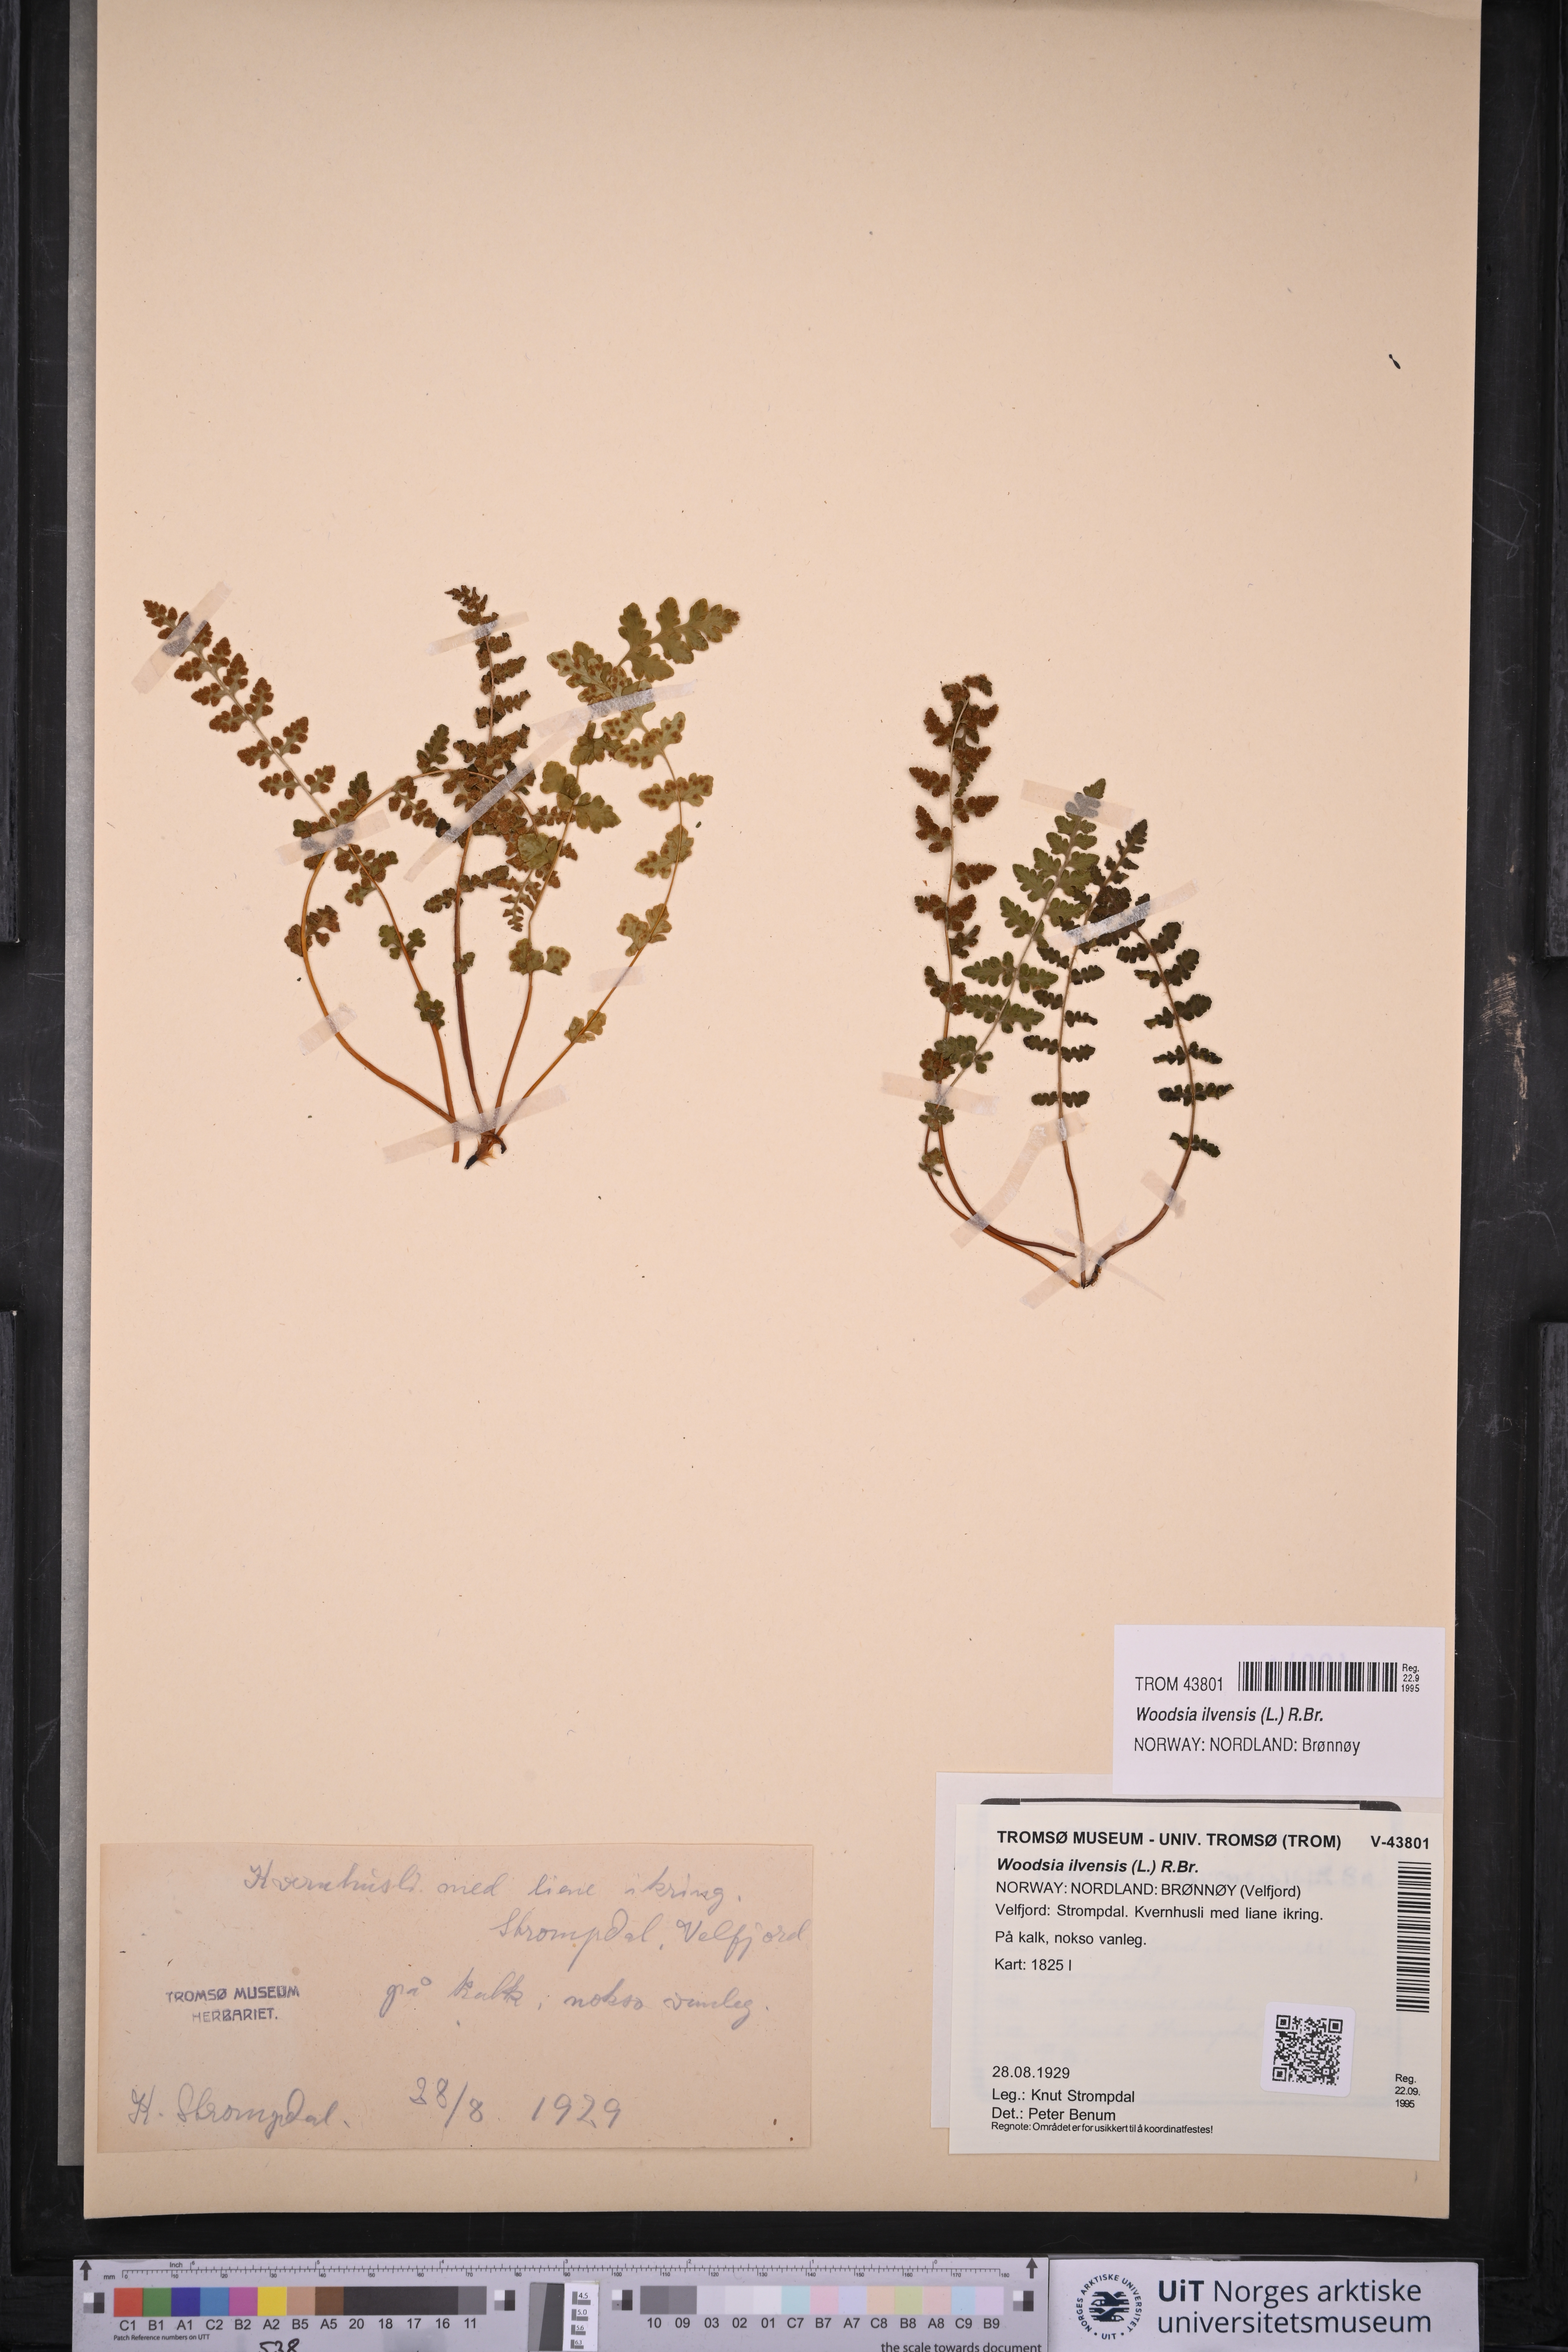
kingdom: Plantae
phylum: Tracheophyta
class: Polypodiopsida
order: Polypodiales
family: Woodsiaceae
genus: Woodsia
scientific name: Woodsia ilvensis
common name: Fragrant woodsia
